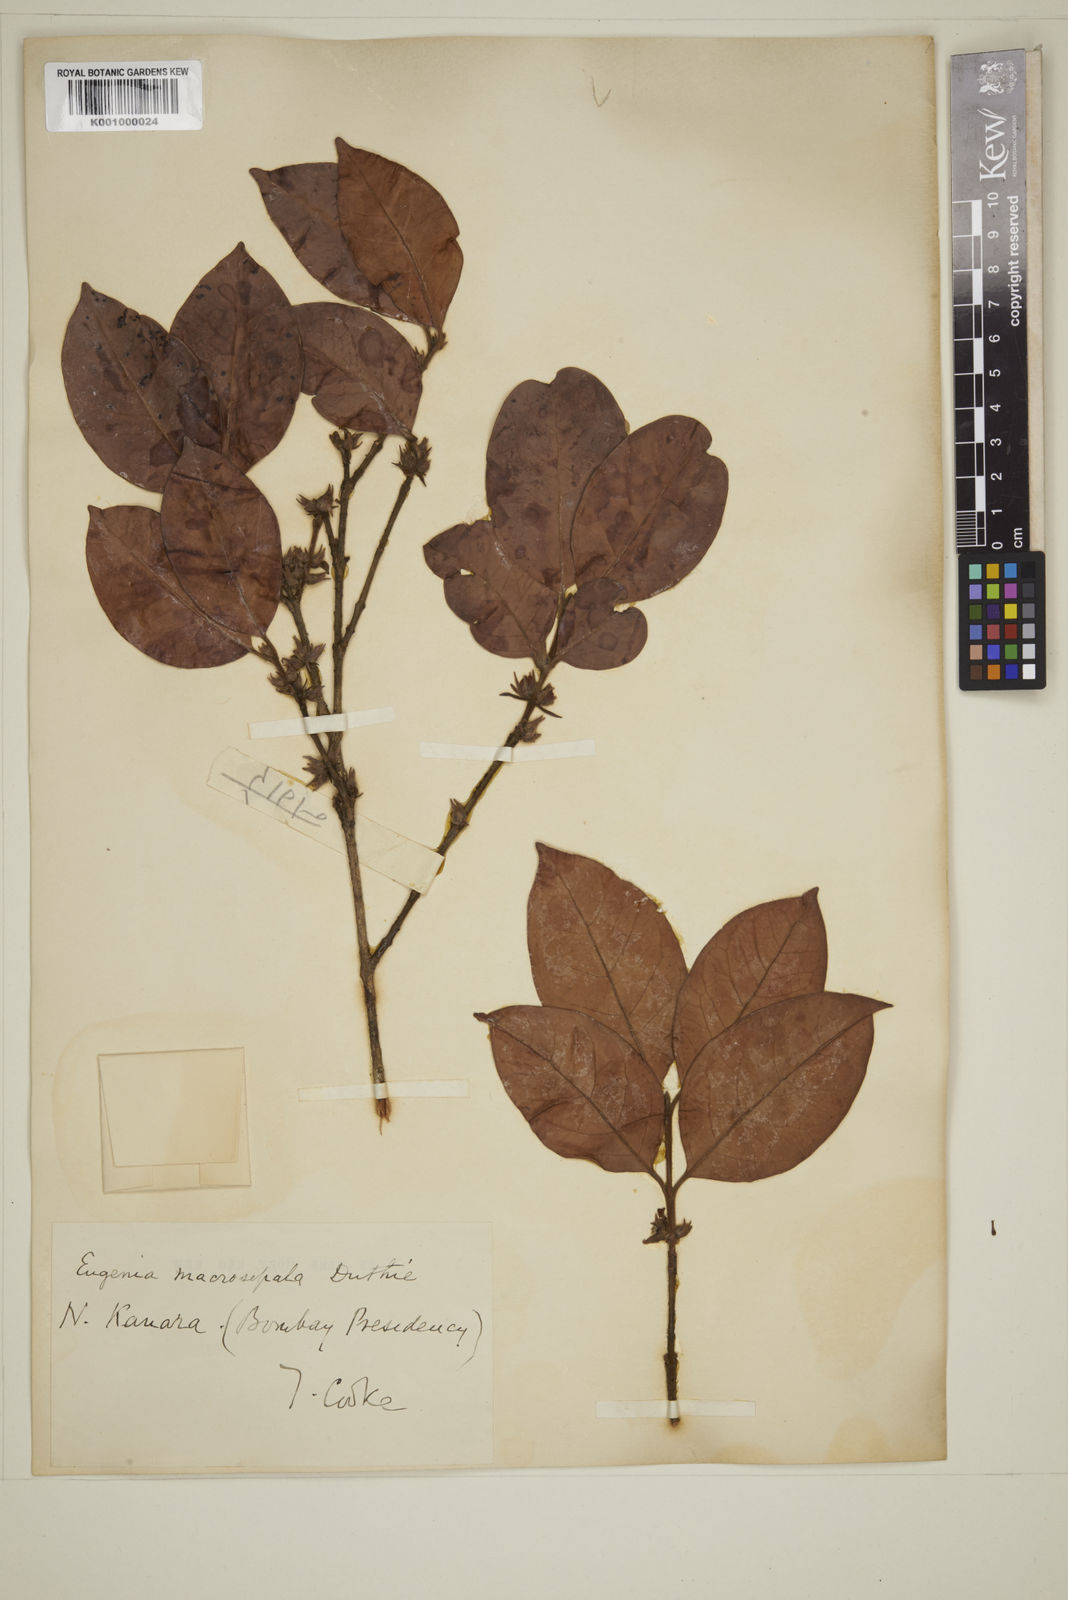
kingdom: Plantae
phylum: Tracheophyta
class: Magnoliopsida
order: Myrtales
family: Myrtaceae
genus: Eugenia
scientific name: Eugenia macrosepala
